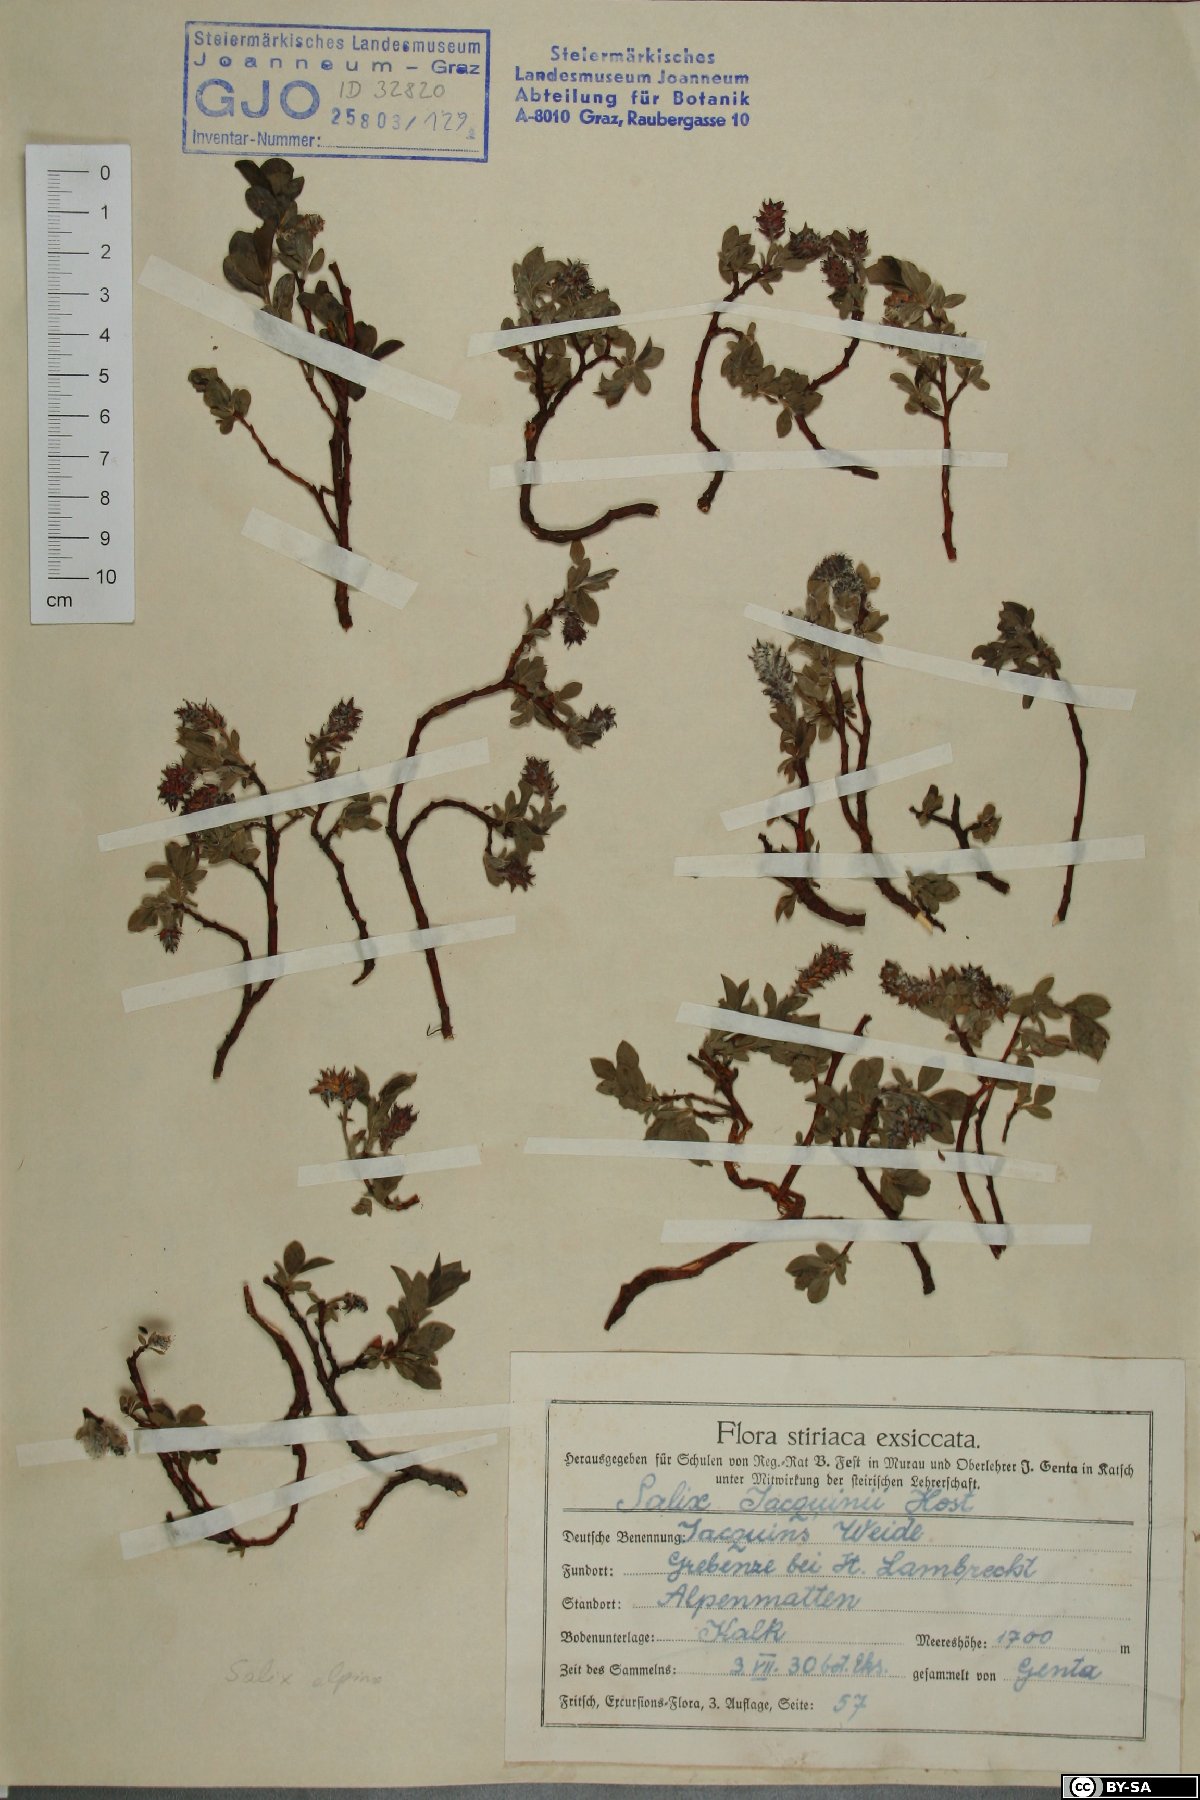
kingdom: Plantae
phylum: Tracheophyta
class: Magnoliopsida
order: Malpighiales
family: Salicaceae
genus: Salix
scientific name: Salix alpina
